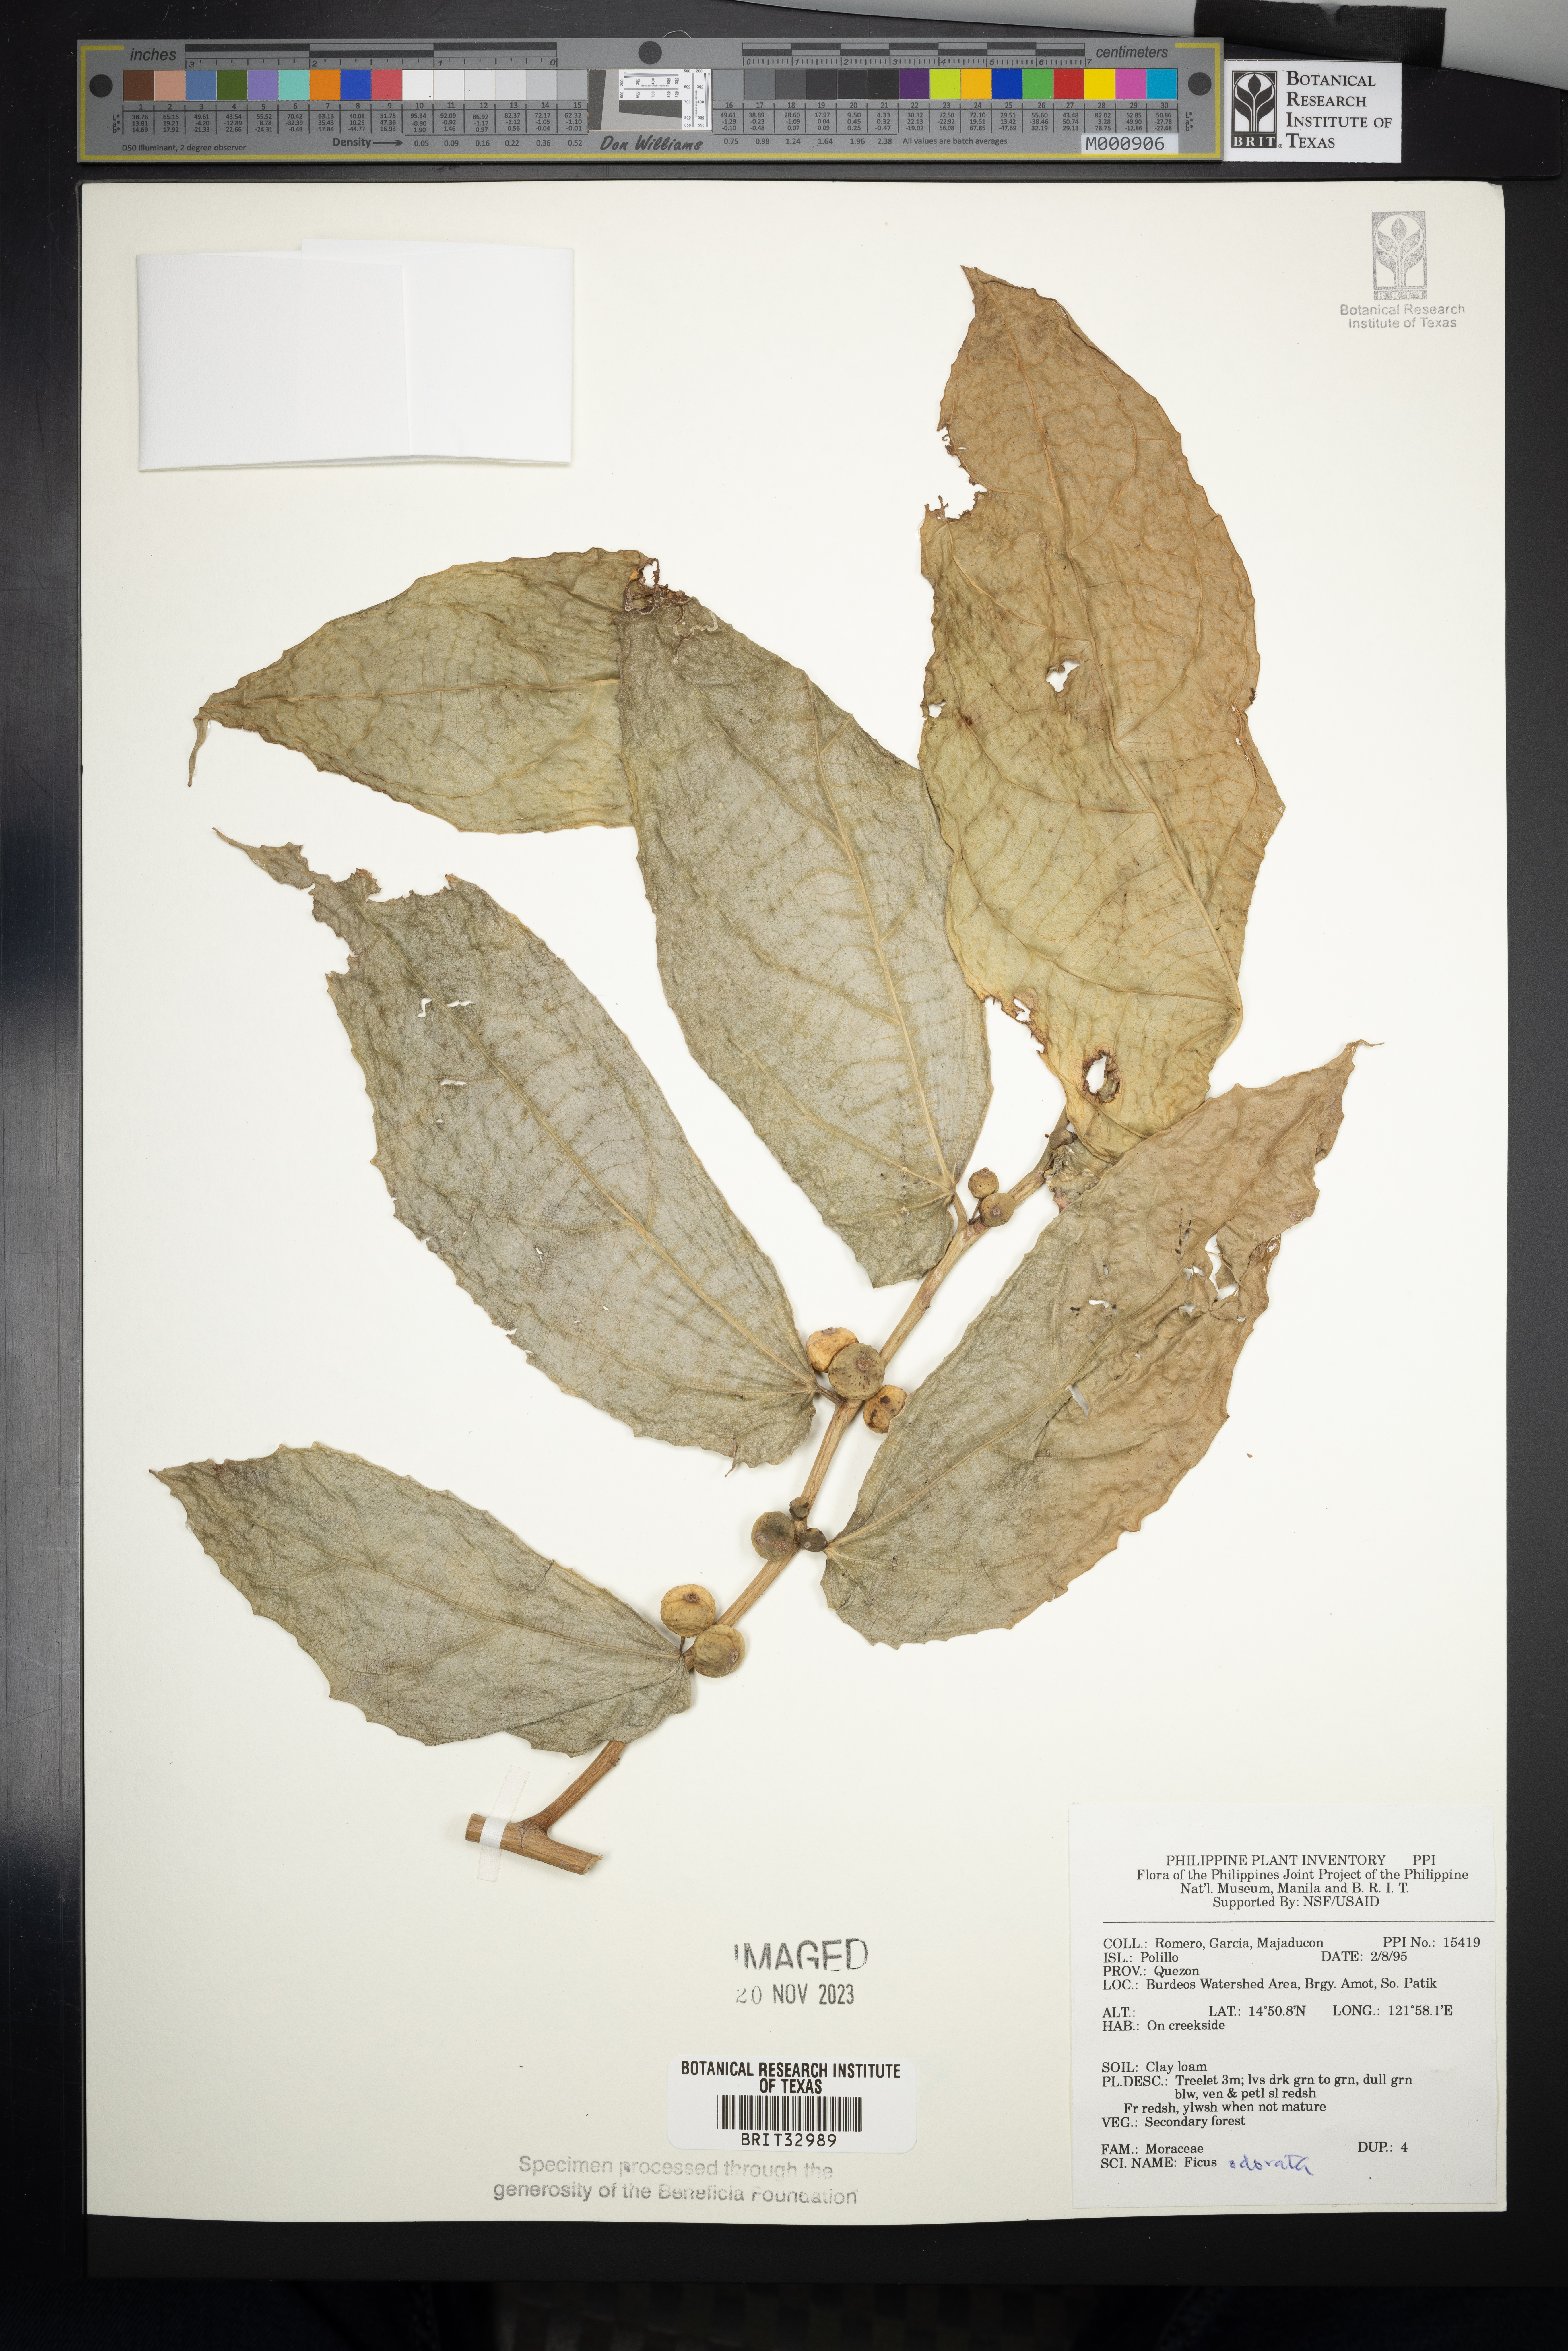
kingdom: Plantae
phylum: Tracheophyta
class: Magnoliopsida
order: Rosales
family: Moraceae
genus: Ficus
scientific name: Ficus odorata
